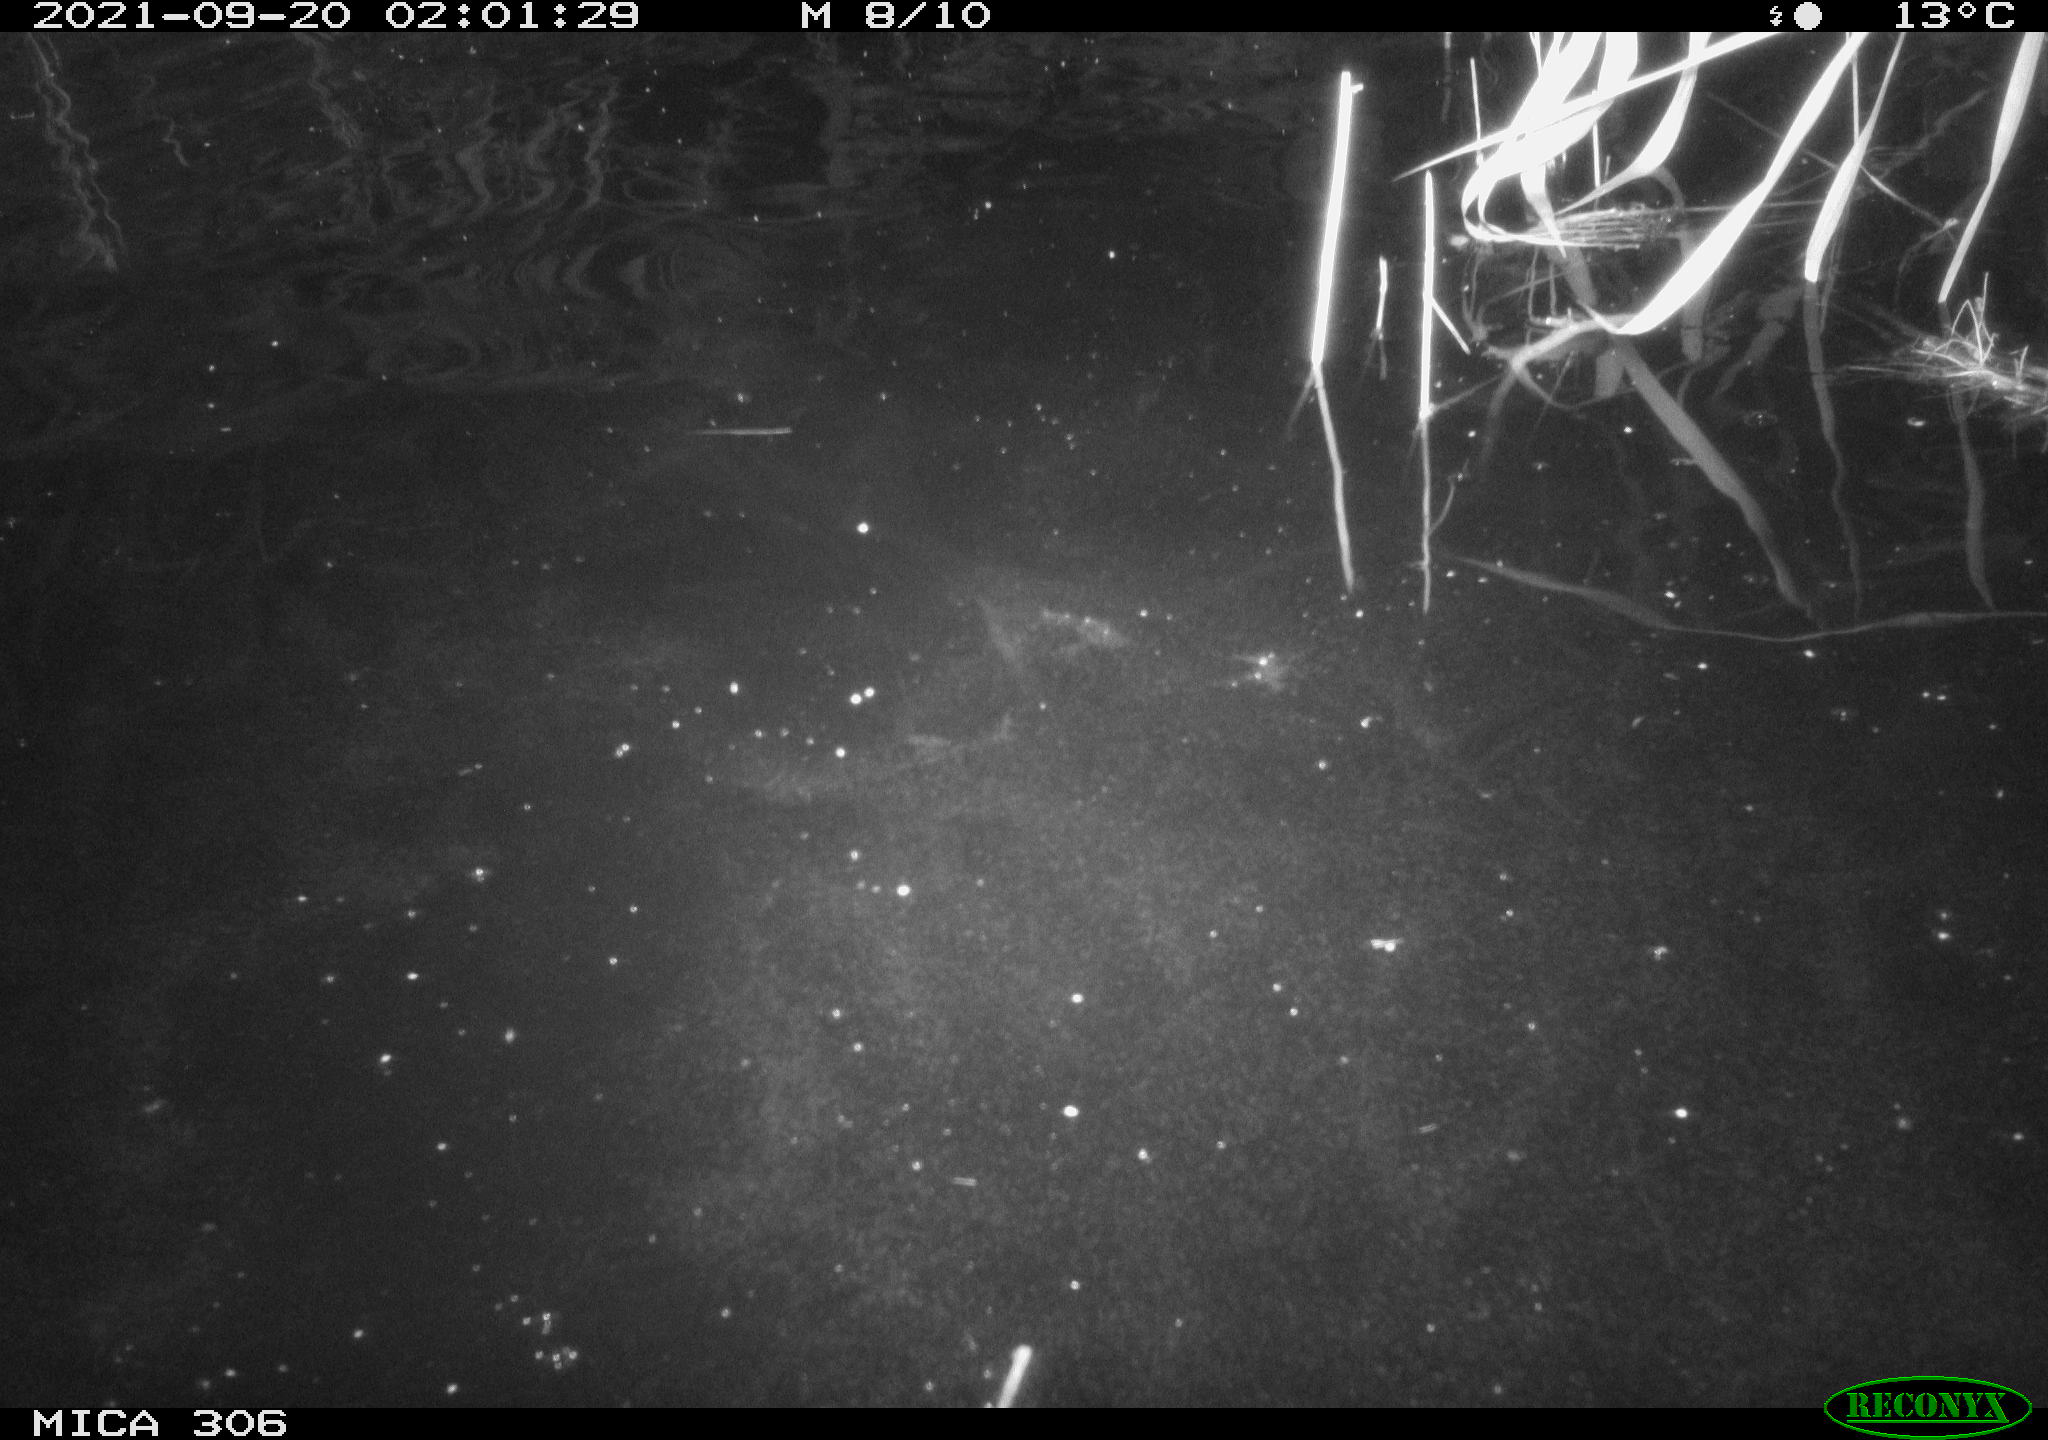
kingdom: Animalia
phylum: Chordata
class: Mammalia
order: Rodentia
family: Cricetidae
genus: Ondatra
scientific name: Ondatra zibethicus
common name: Muskrat
